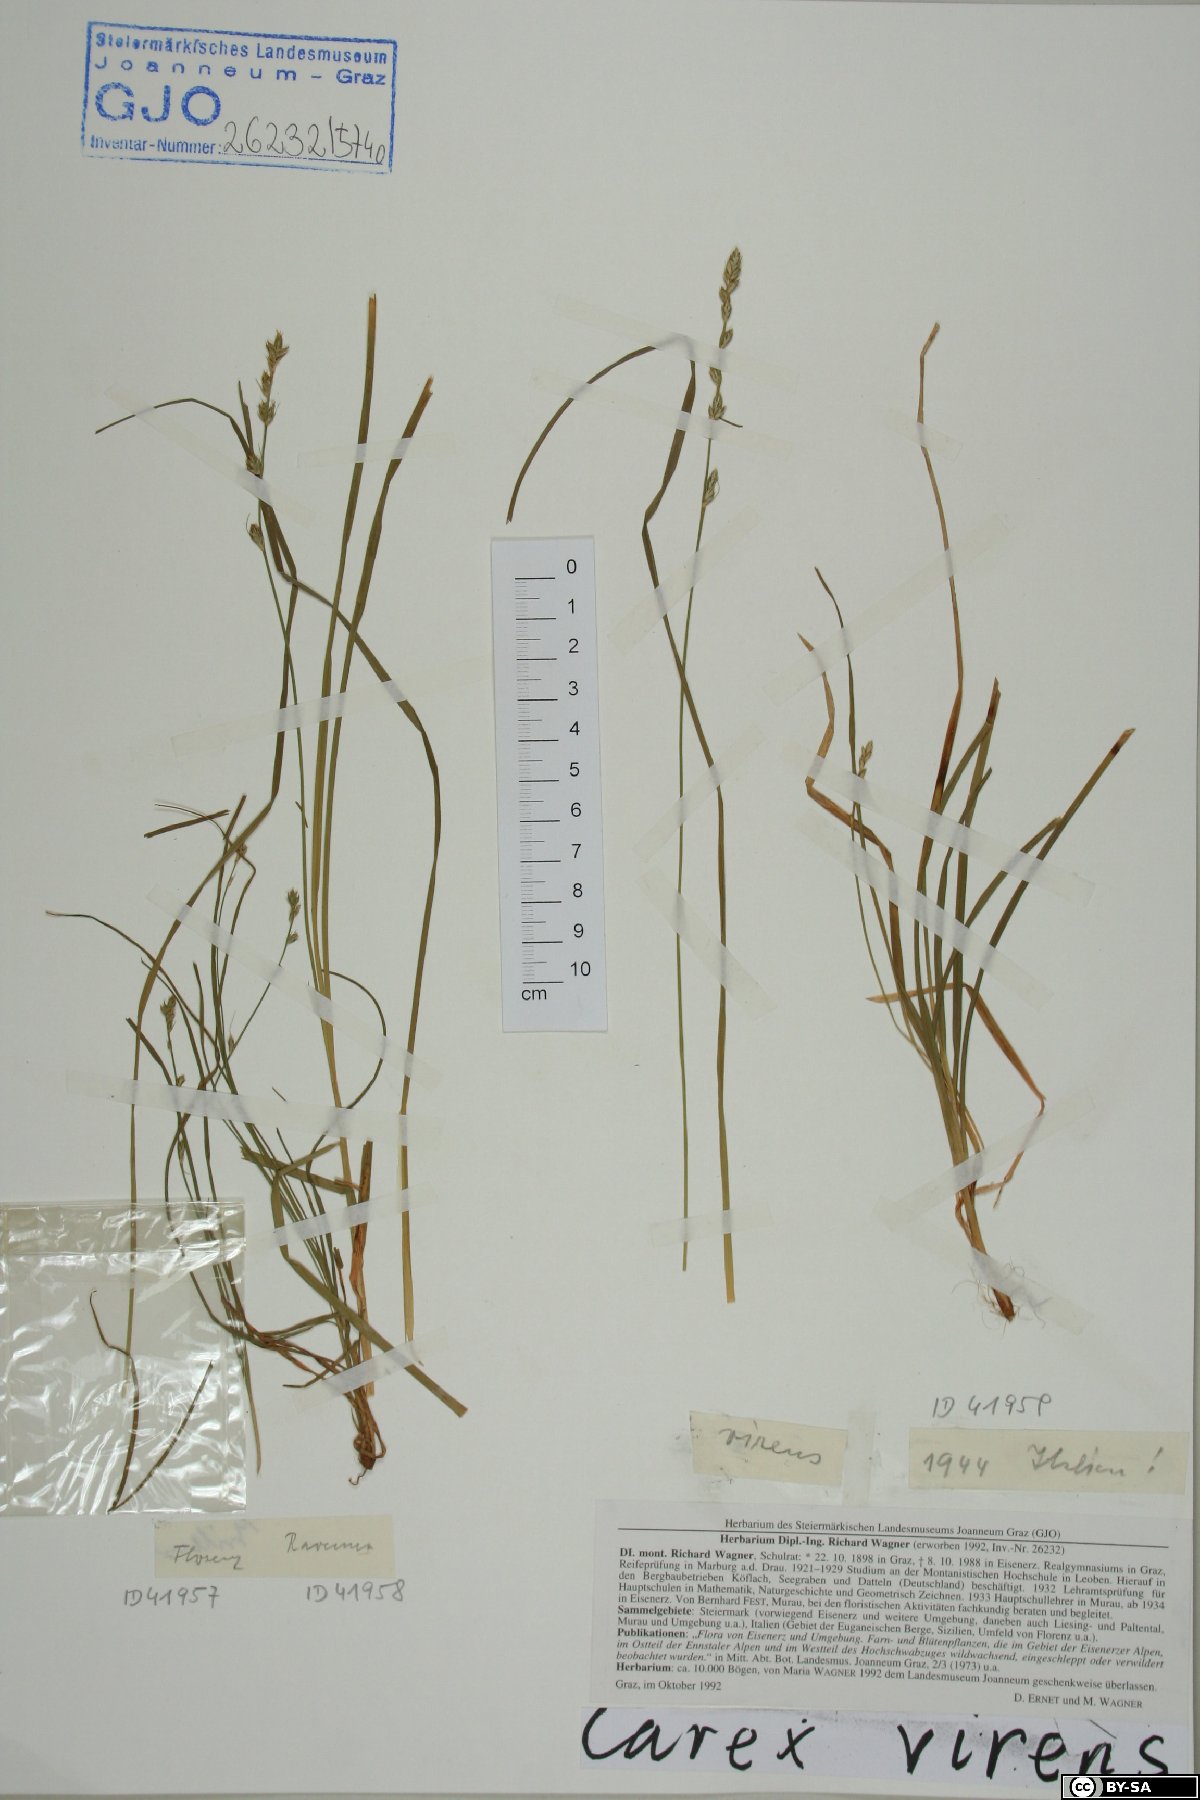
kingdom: Plantae
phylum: Tracheophyta
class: Liliopsida
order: Poales
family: Cyperaceae
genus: Carex
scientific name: Carex divulsa
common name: Grassland sedge
